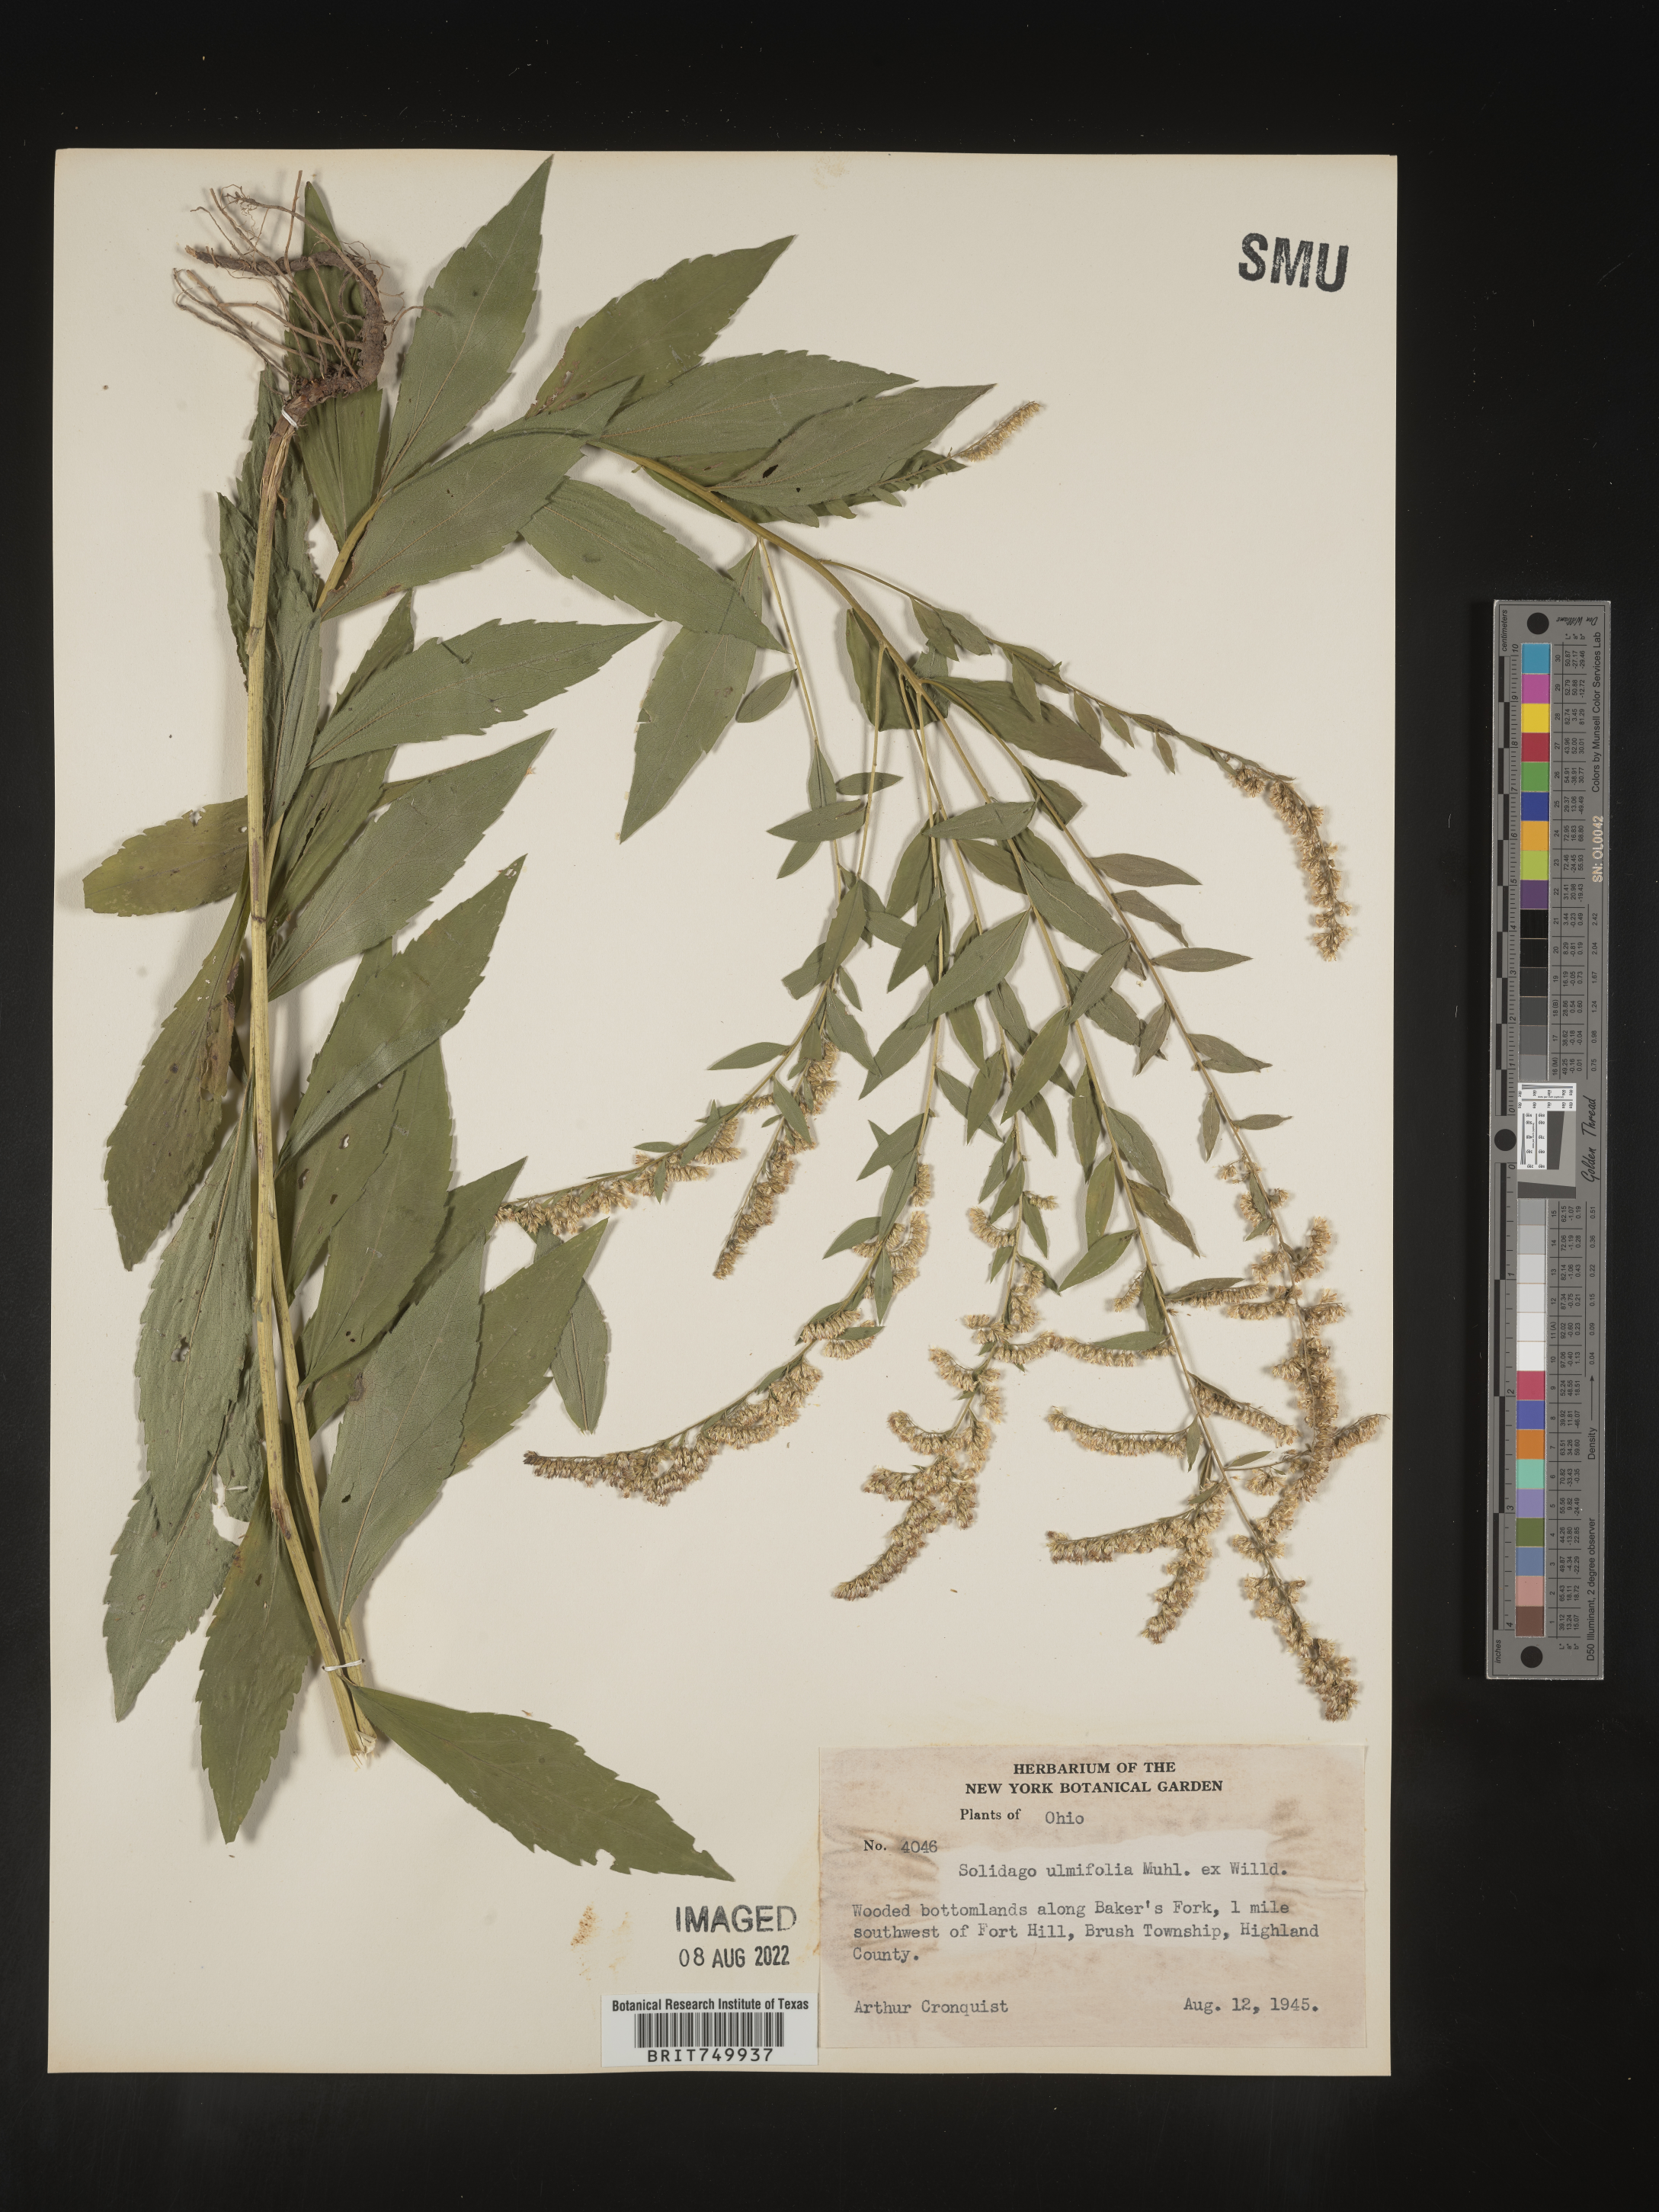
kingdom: Plantae
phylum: Tracheophyta
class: Magnoliopsida
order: Asterales
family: Asteraceae
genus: Solidago
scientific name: Solidago ulmifolia
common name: Elm-leaf goldenrod
